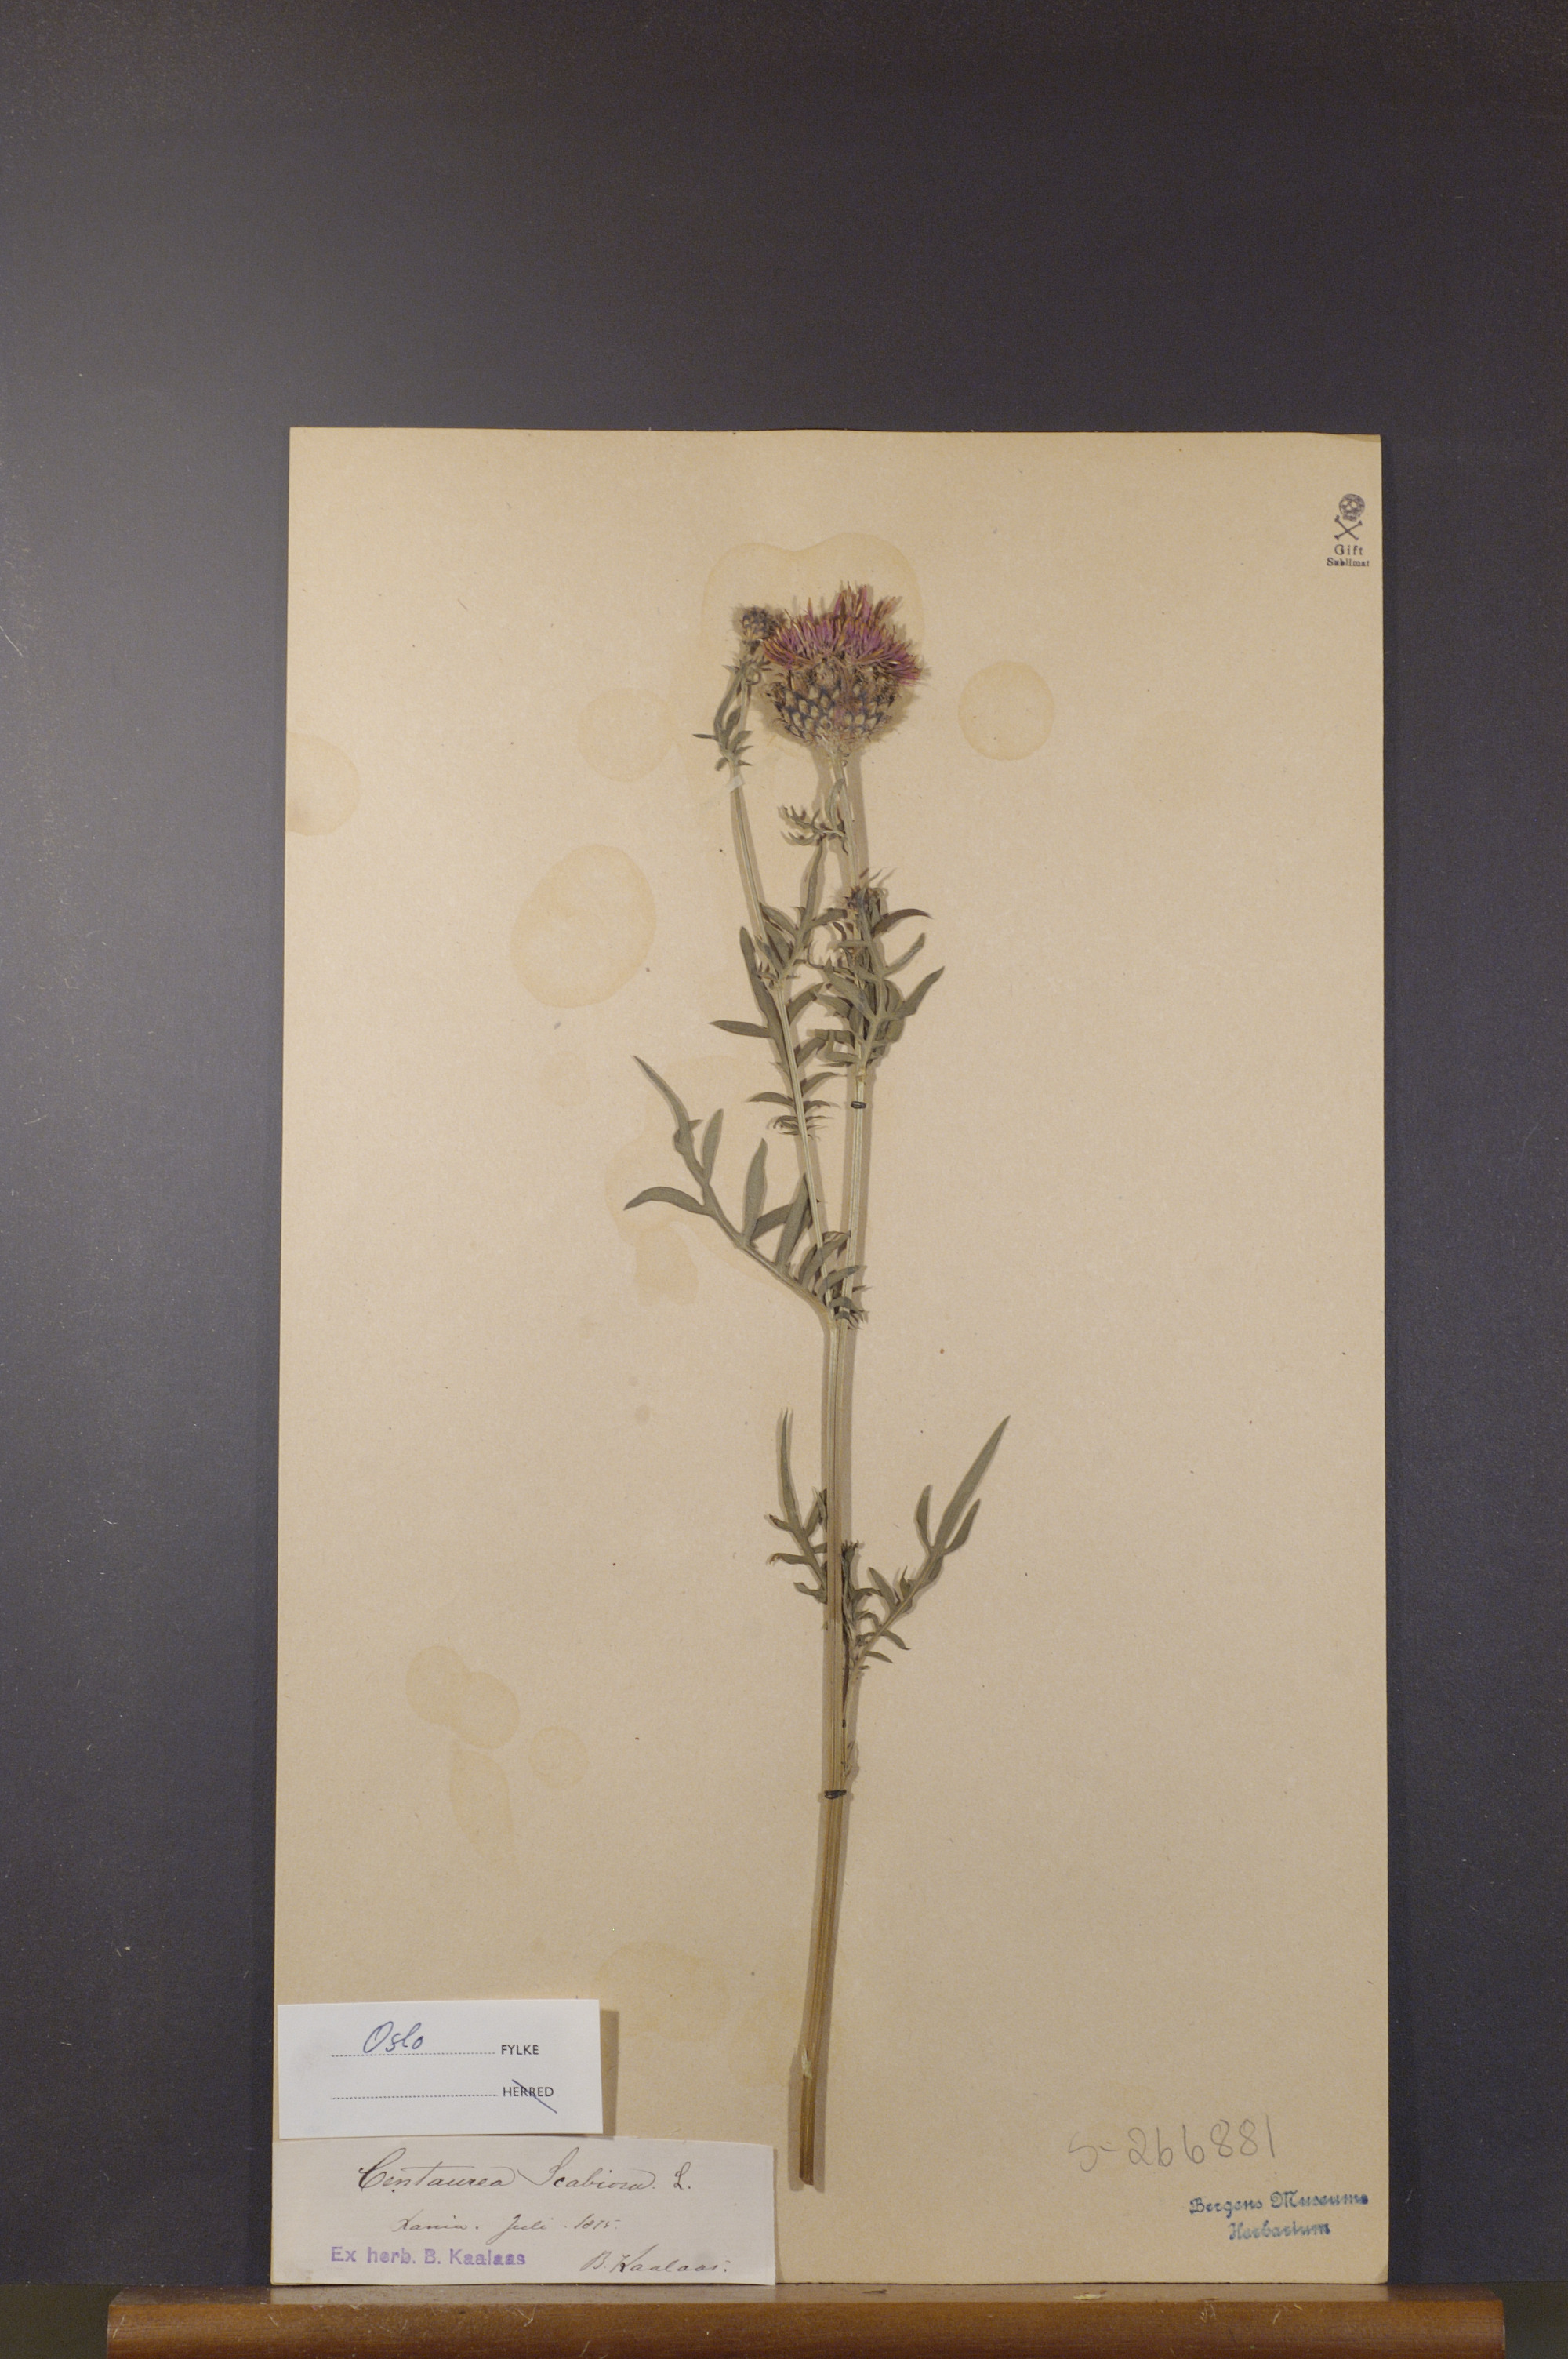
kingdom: Plantae
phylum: Tracheophyta
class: Magnoliopsida
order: Asterales
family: Asteraceae
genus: Centaurea
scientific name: Centaurea scabiosa
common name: Greater knapweed
